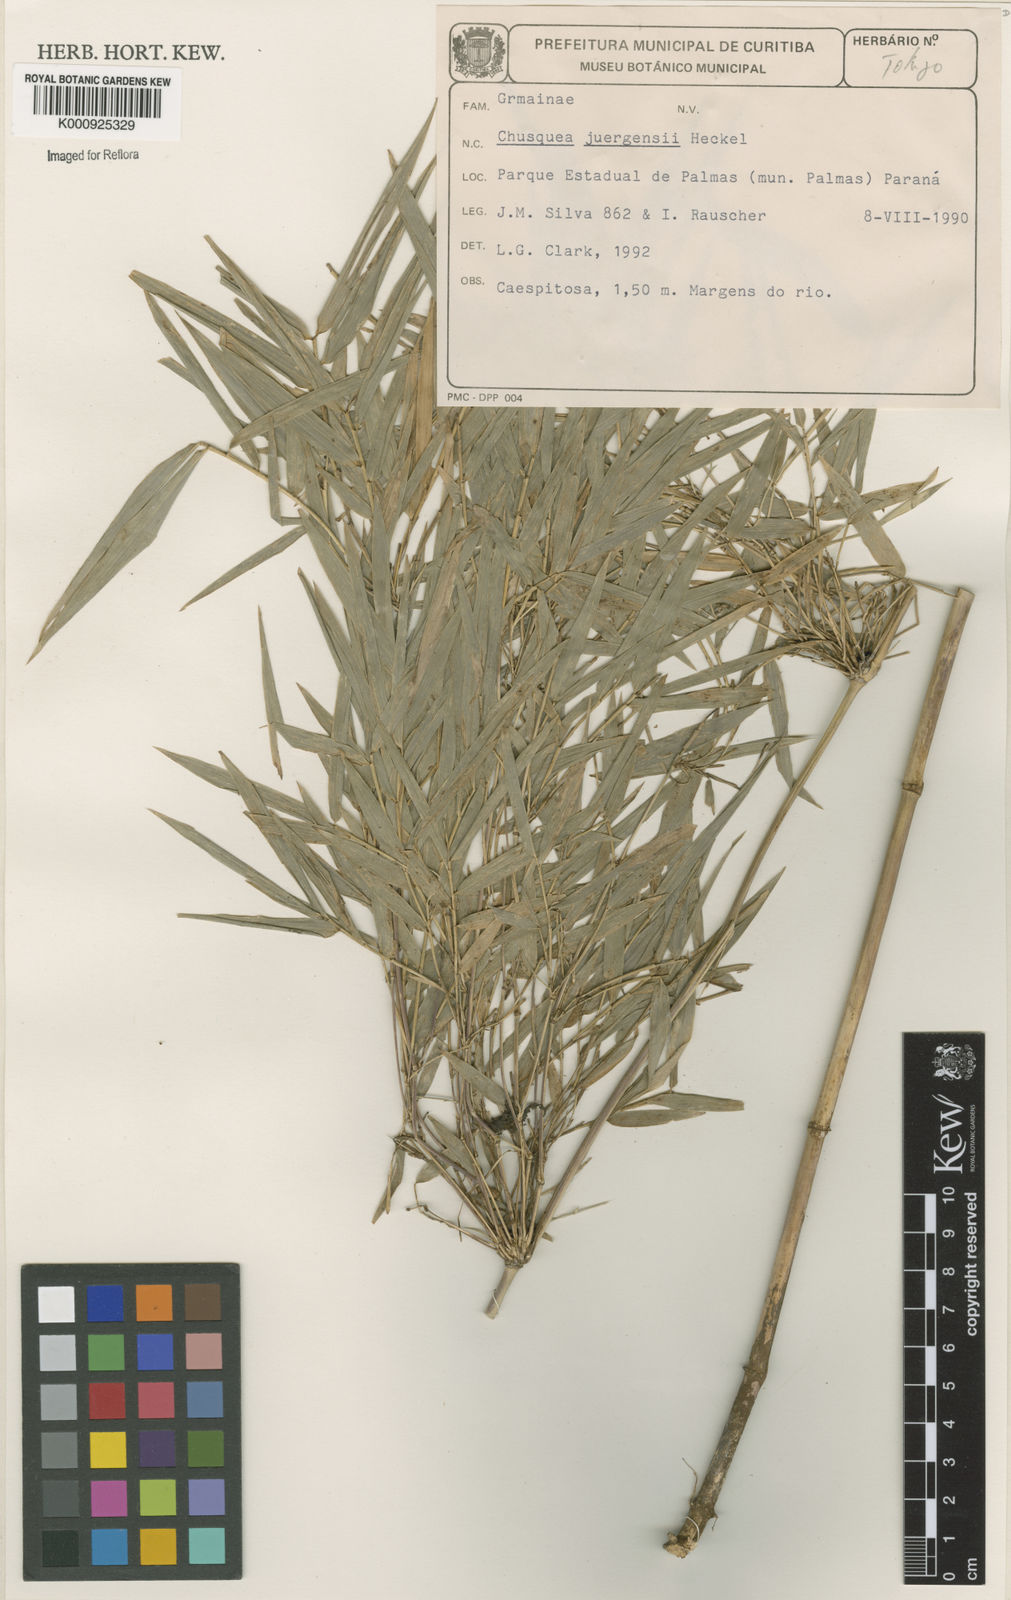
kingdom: Plantae
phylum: Tracheophyta
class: Liliopsida
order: Poales
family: Poaceae
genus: Chusquea
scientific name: Chusquea juergensii
